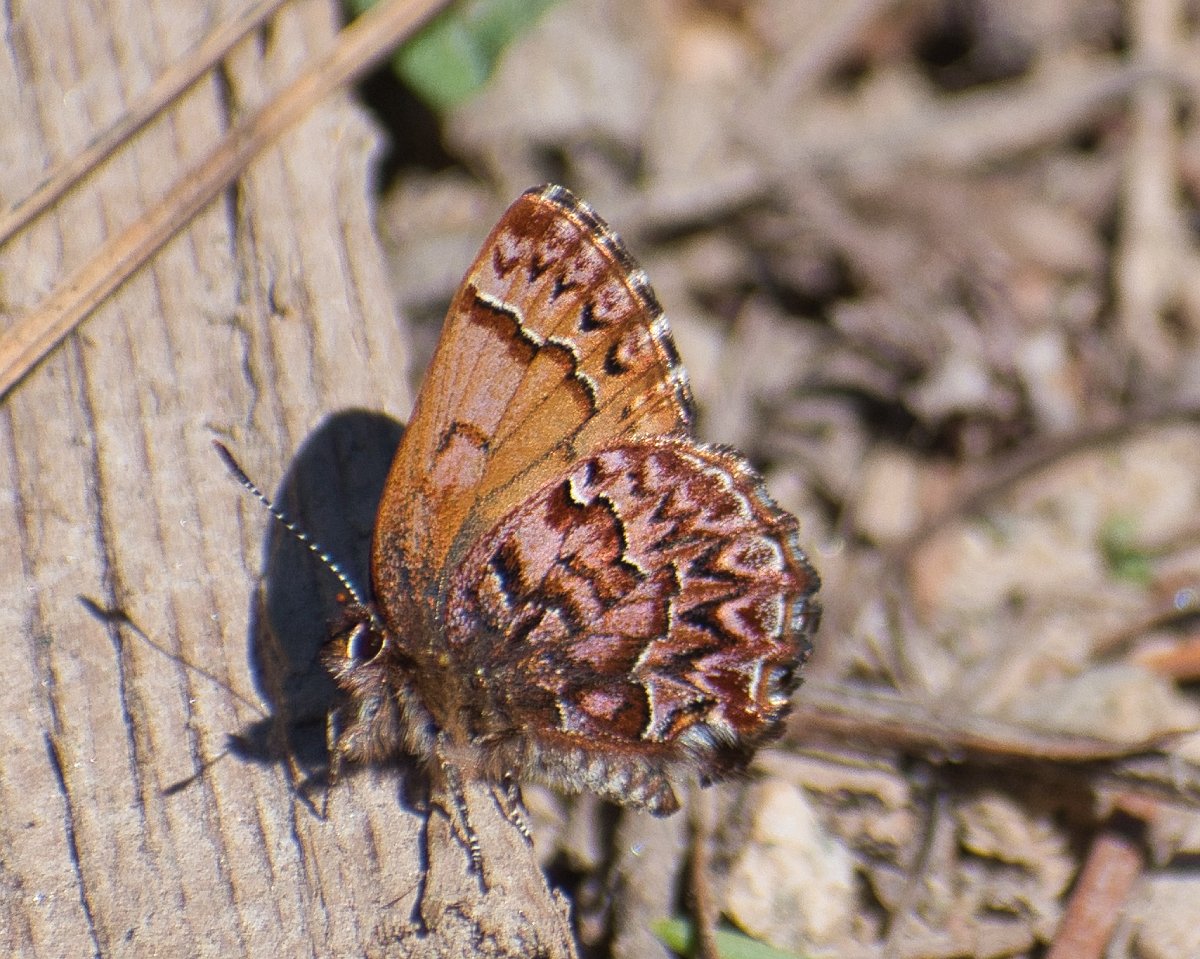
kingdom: Animalia
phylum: Arthropoda
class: Insecta
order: Lepidoptera
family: Lycaenidae
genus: Incisalia
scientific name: Incisalia eryphon
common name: Western Pine Elfin
